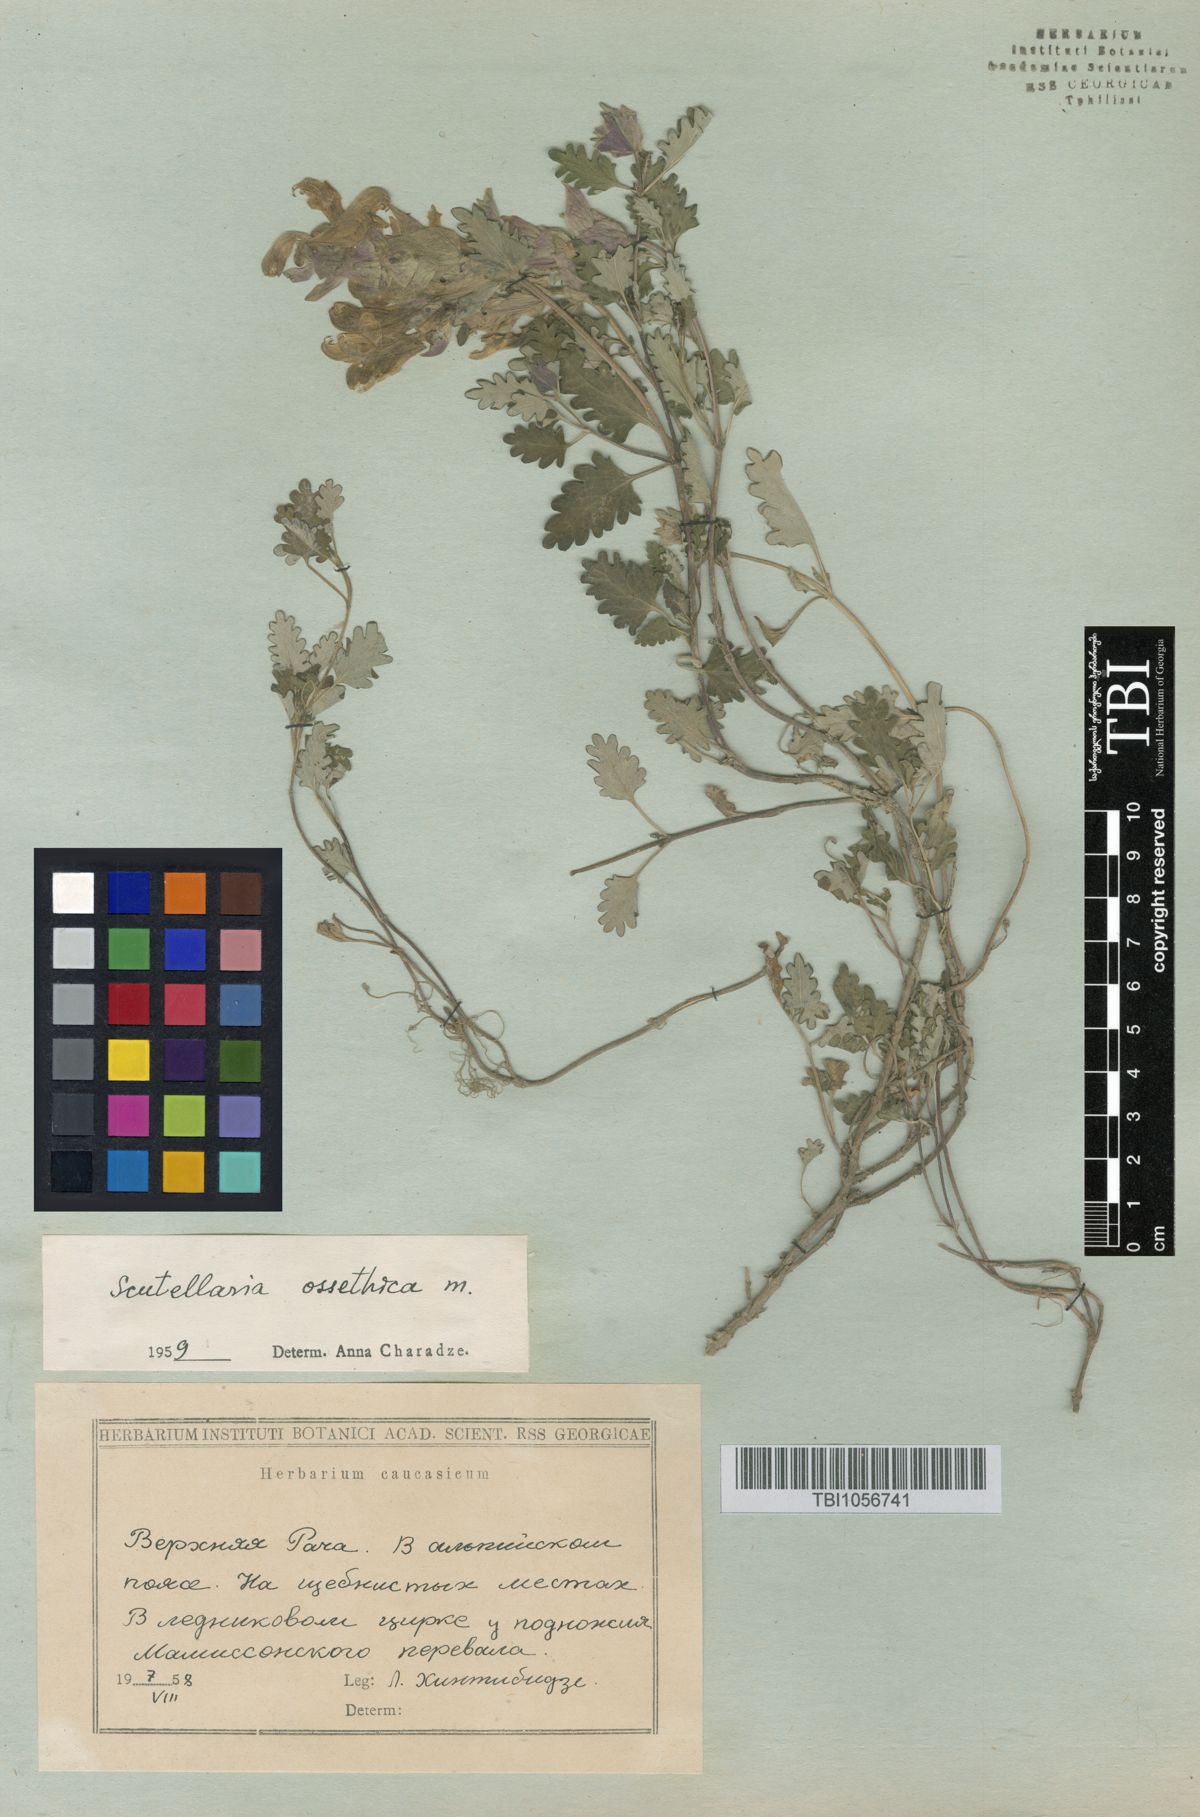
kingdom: Plantae
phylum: Tracheophyta
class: Magnoliopsida
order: Lamiales
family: Lamiaceae
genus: Scutellaria
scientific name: Scutellaria ossethica
